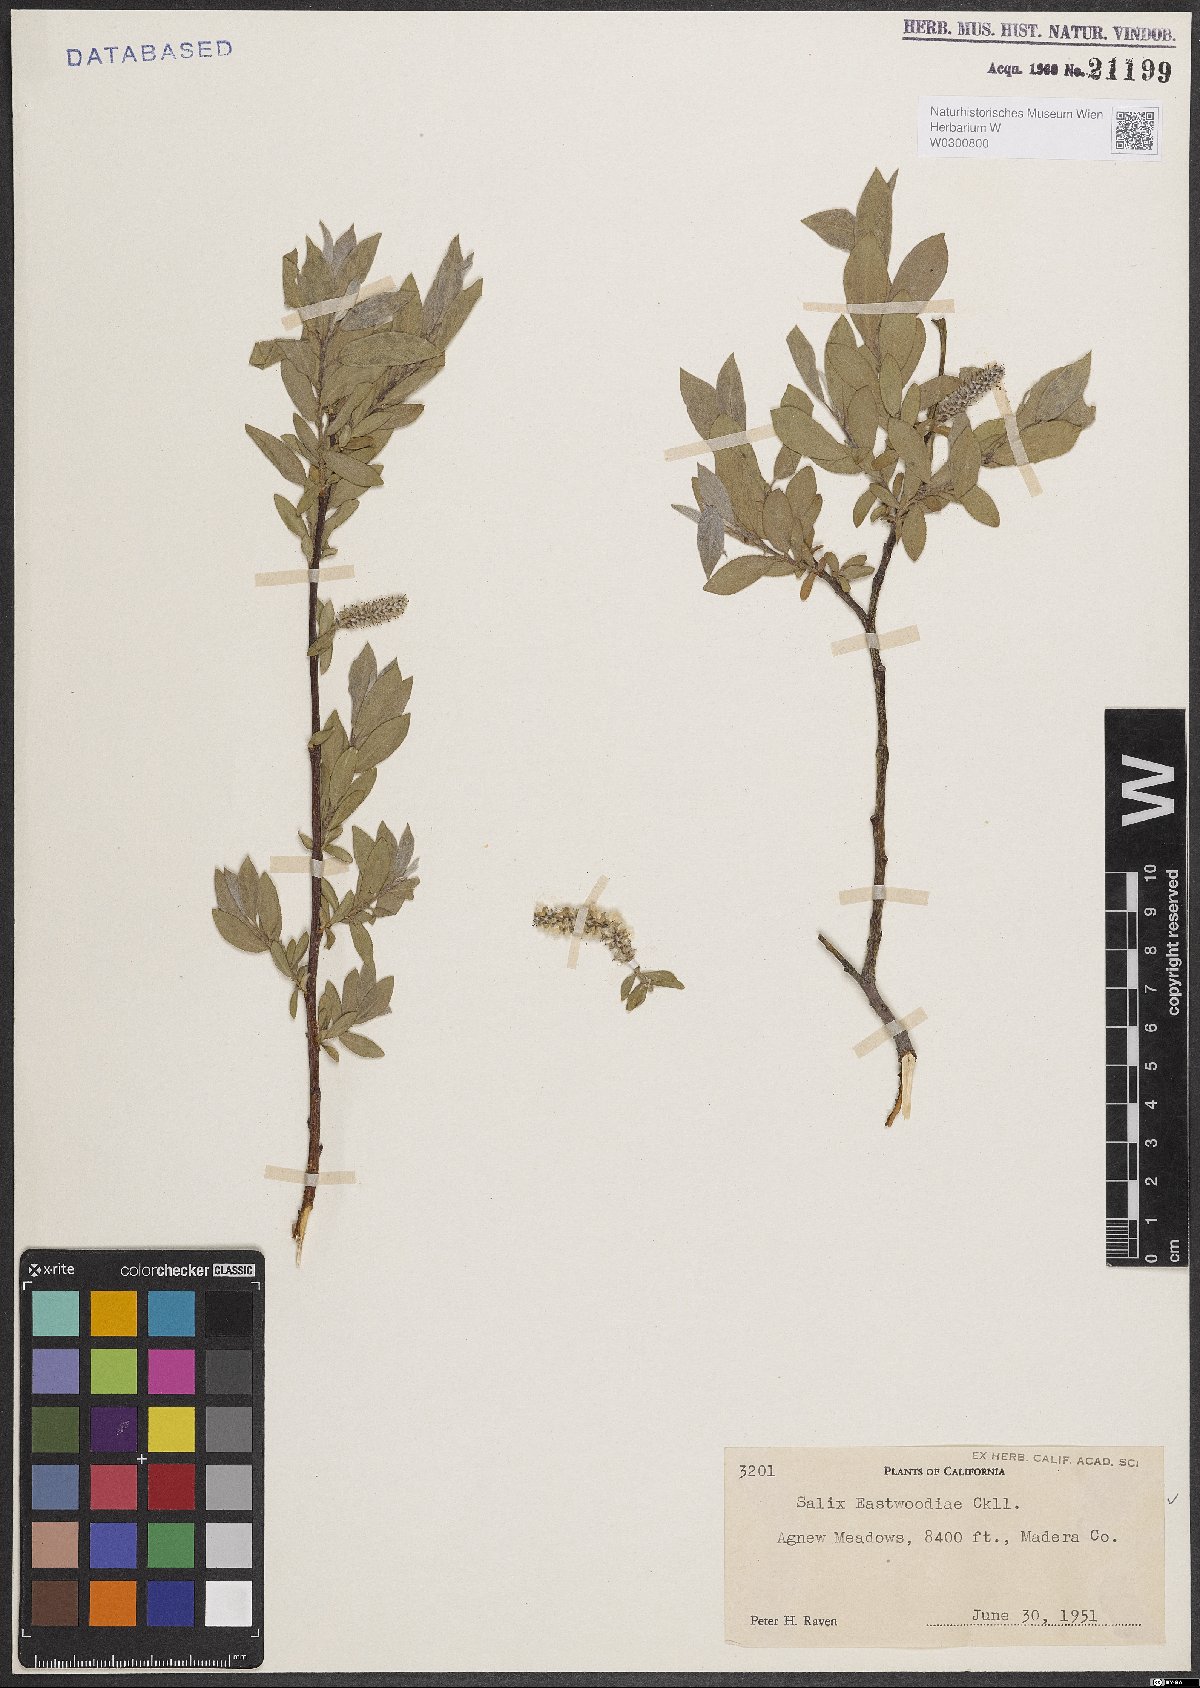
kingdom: Plantae
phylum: Tracheophyta
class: Magnoliopsida
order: Malpighiales
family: Salicaceae
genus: Salix
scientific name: Salix eastwoodiae
